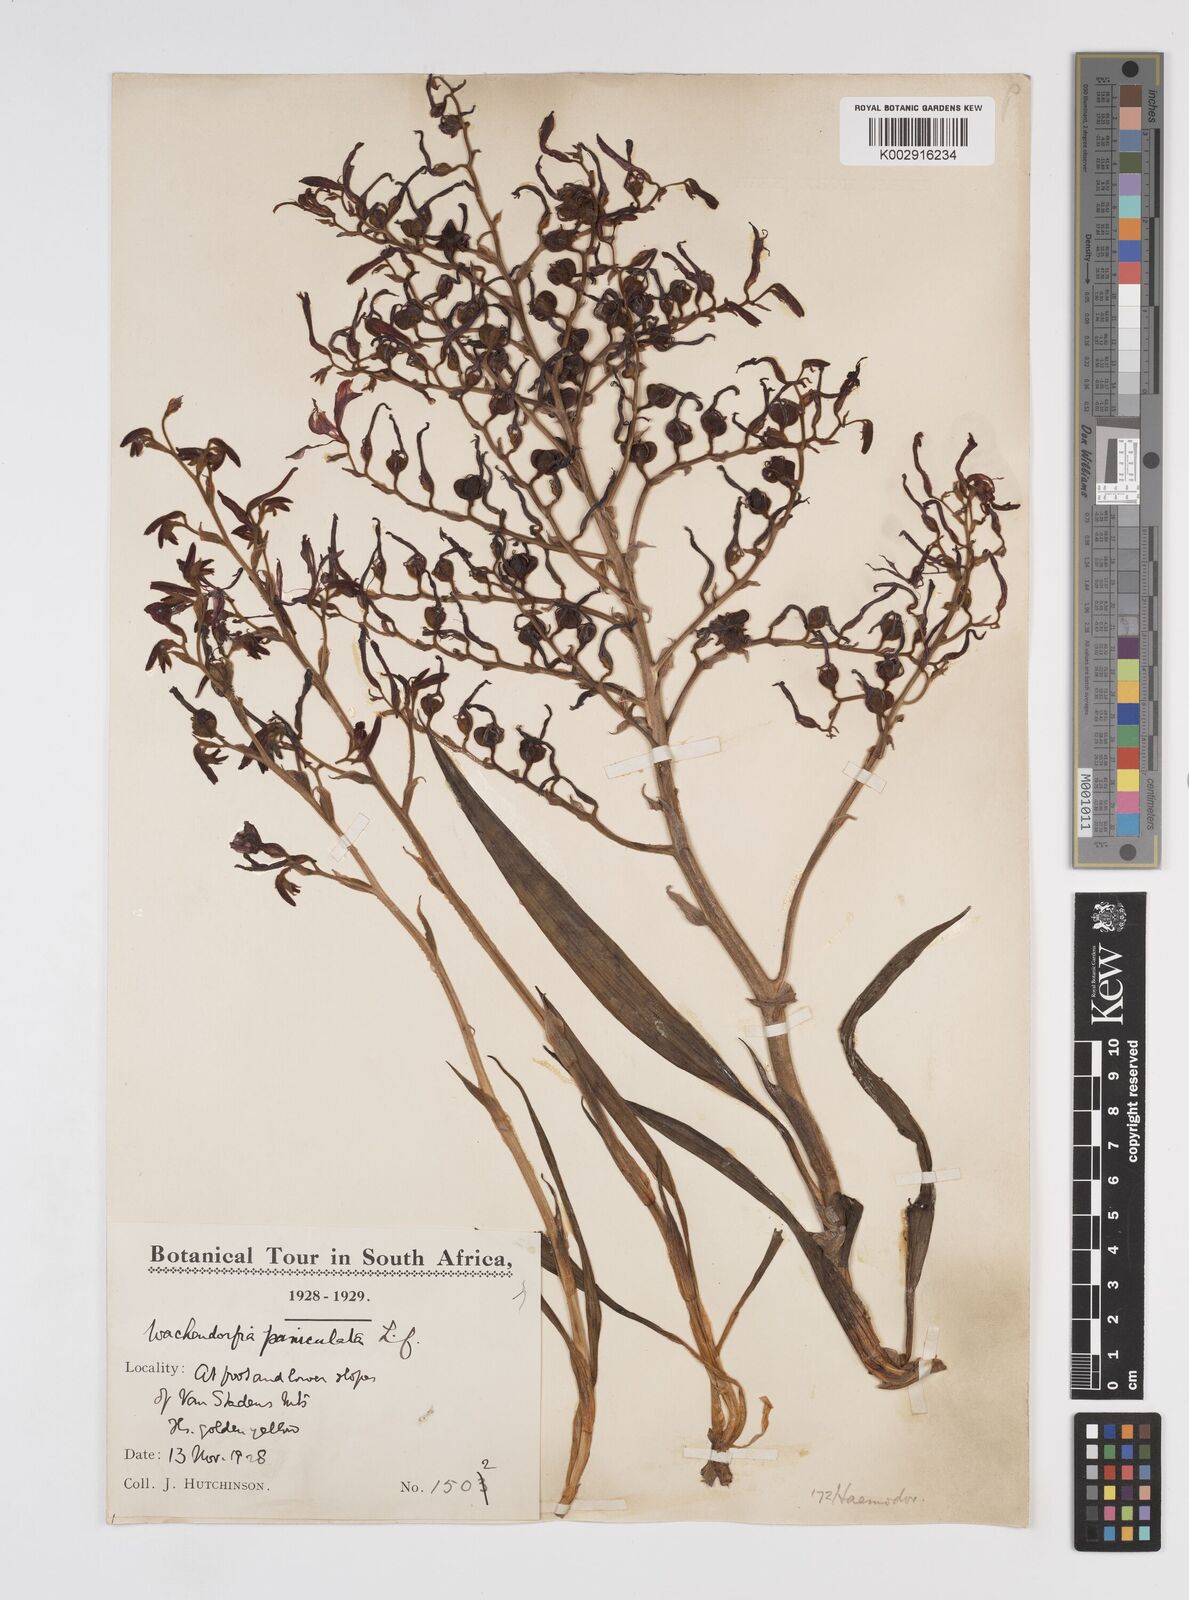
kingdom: Plantae
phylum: Tracheophyta
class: Liliopsida
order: Commelinales
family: Haemodoraceae
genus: Wachendorfia
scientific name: Wachendorfia paniculata
